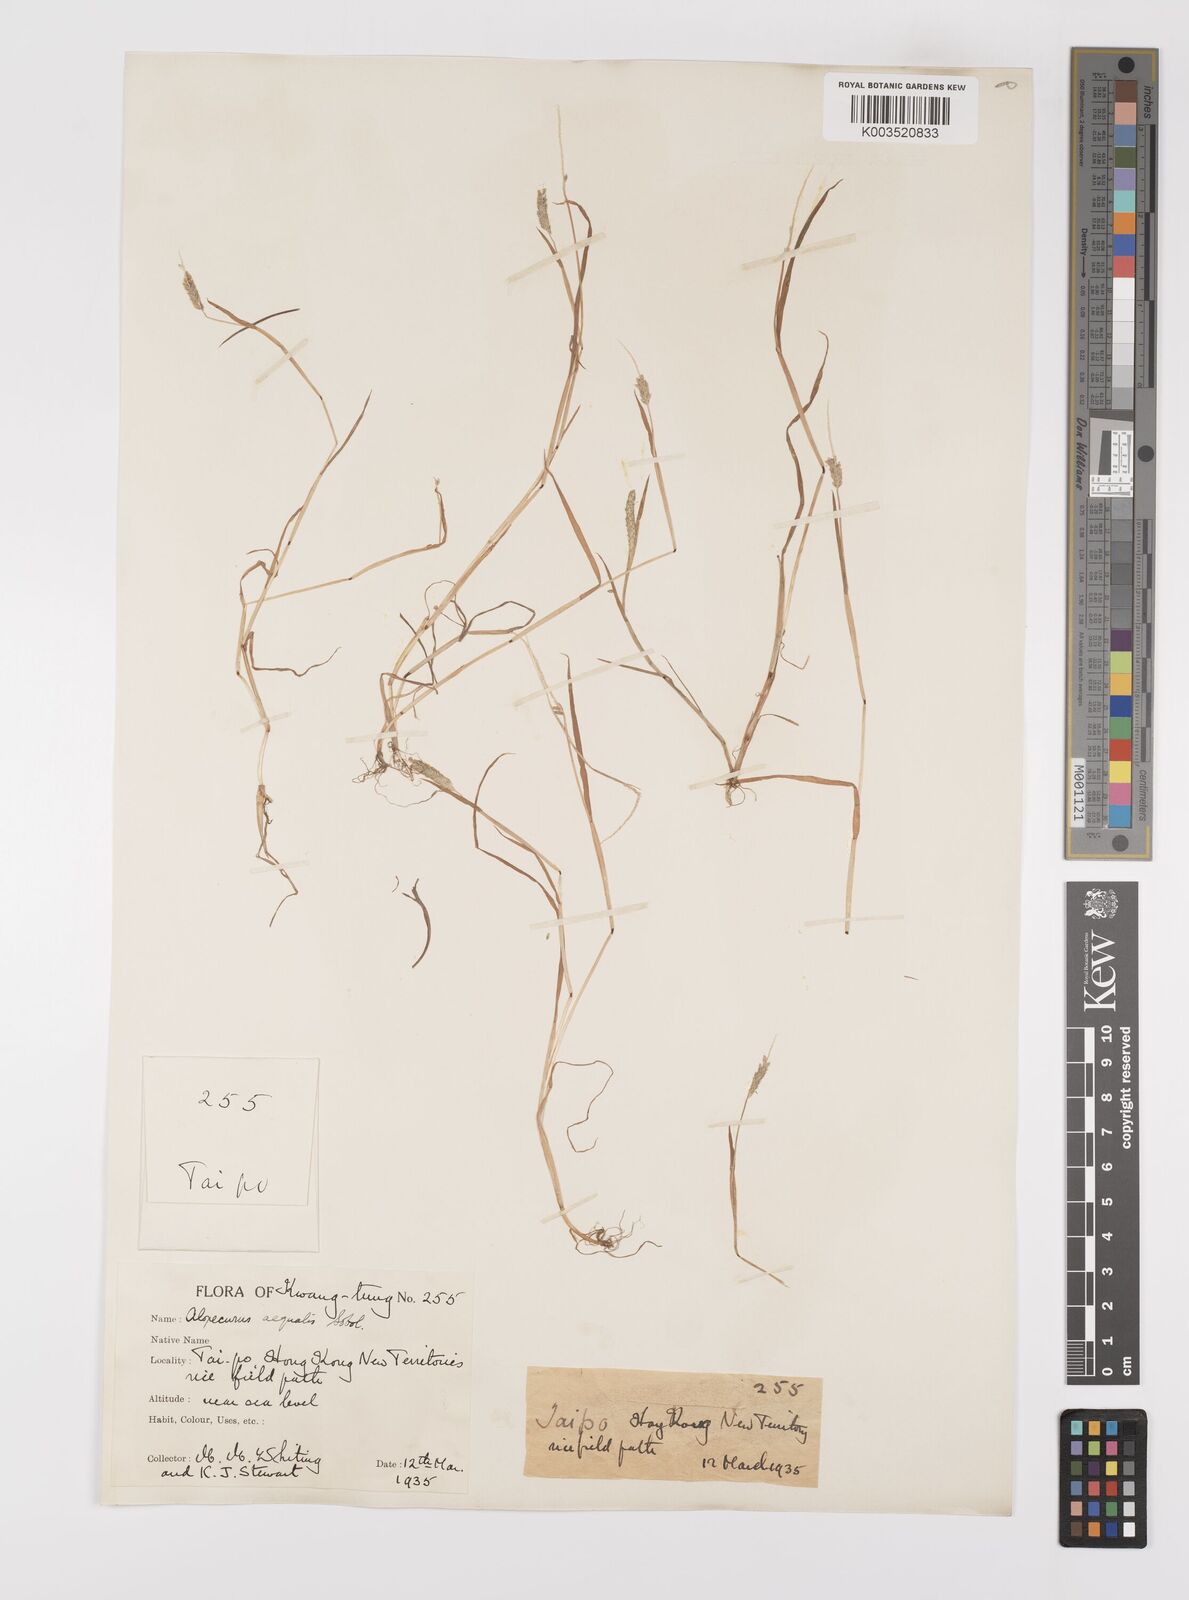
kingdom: Plantae
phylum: Tracheophyta
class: Liliopsida
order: Poales
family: Poaceae
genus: Alopecurus
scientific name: Alopecurus aequalis
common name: Orange foxtail
